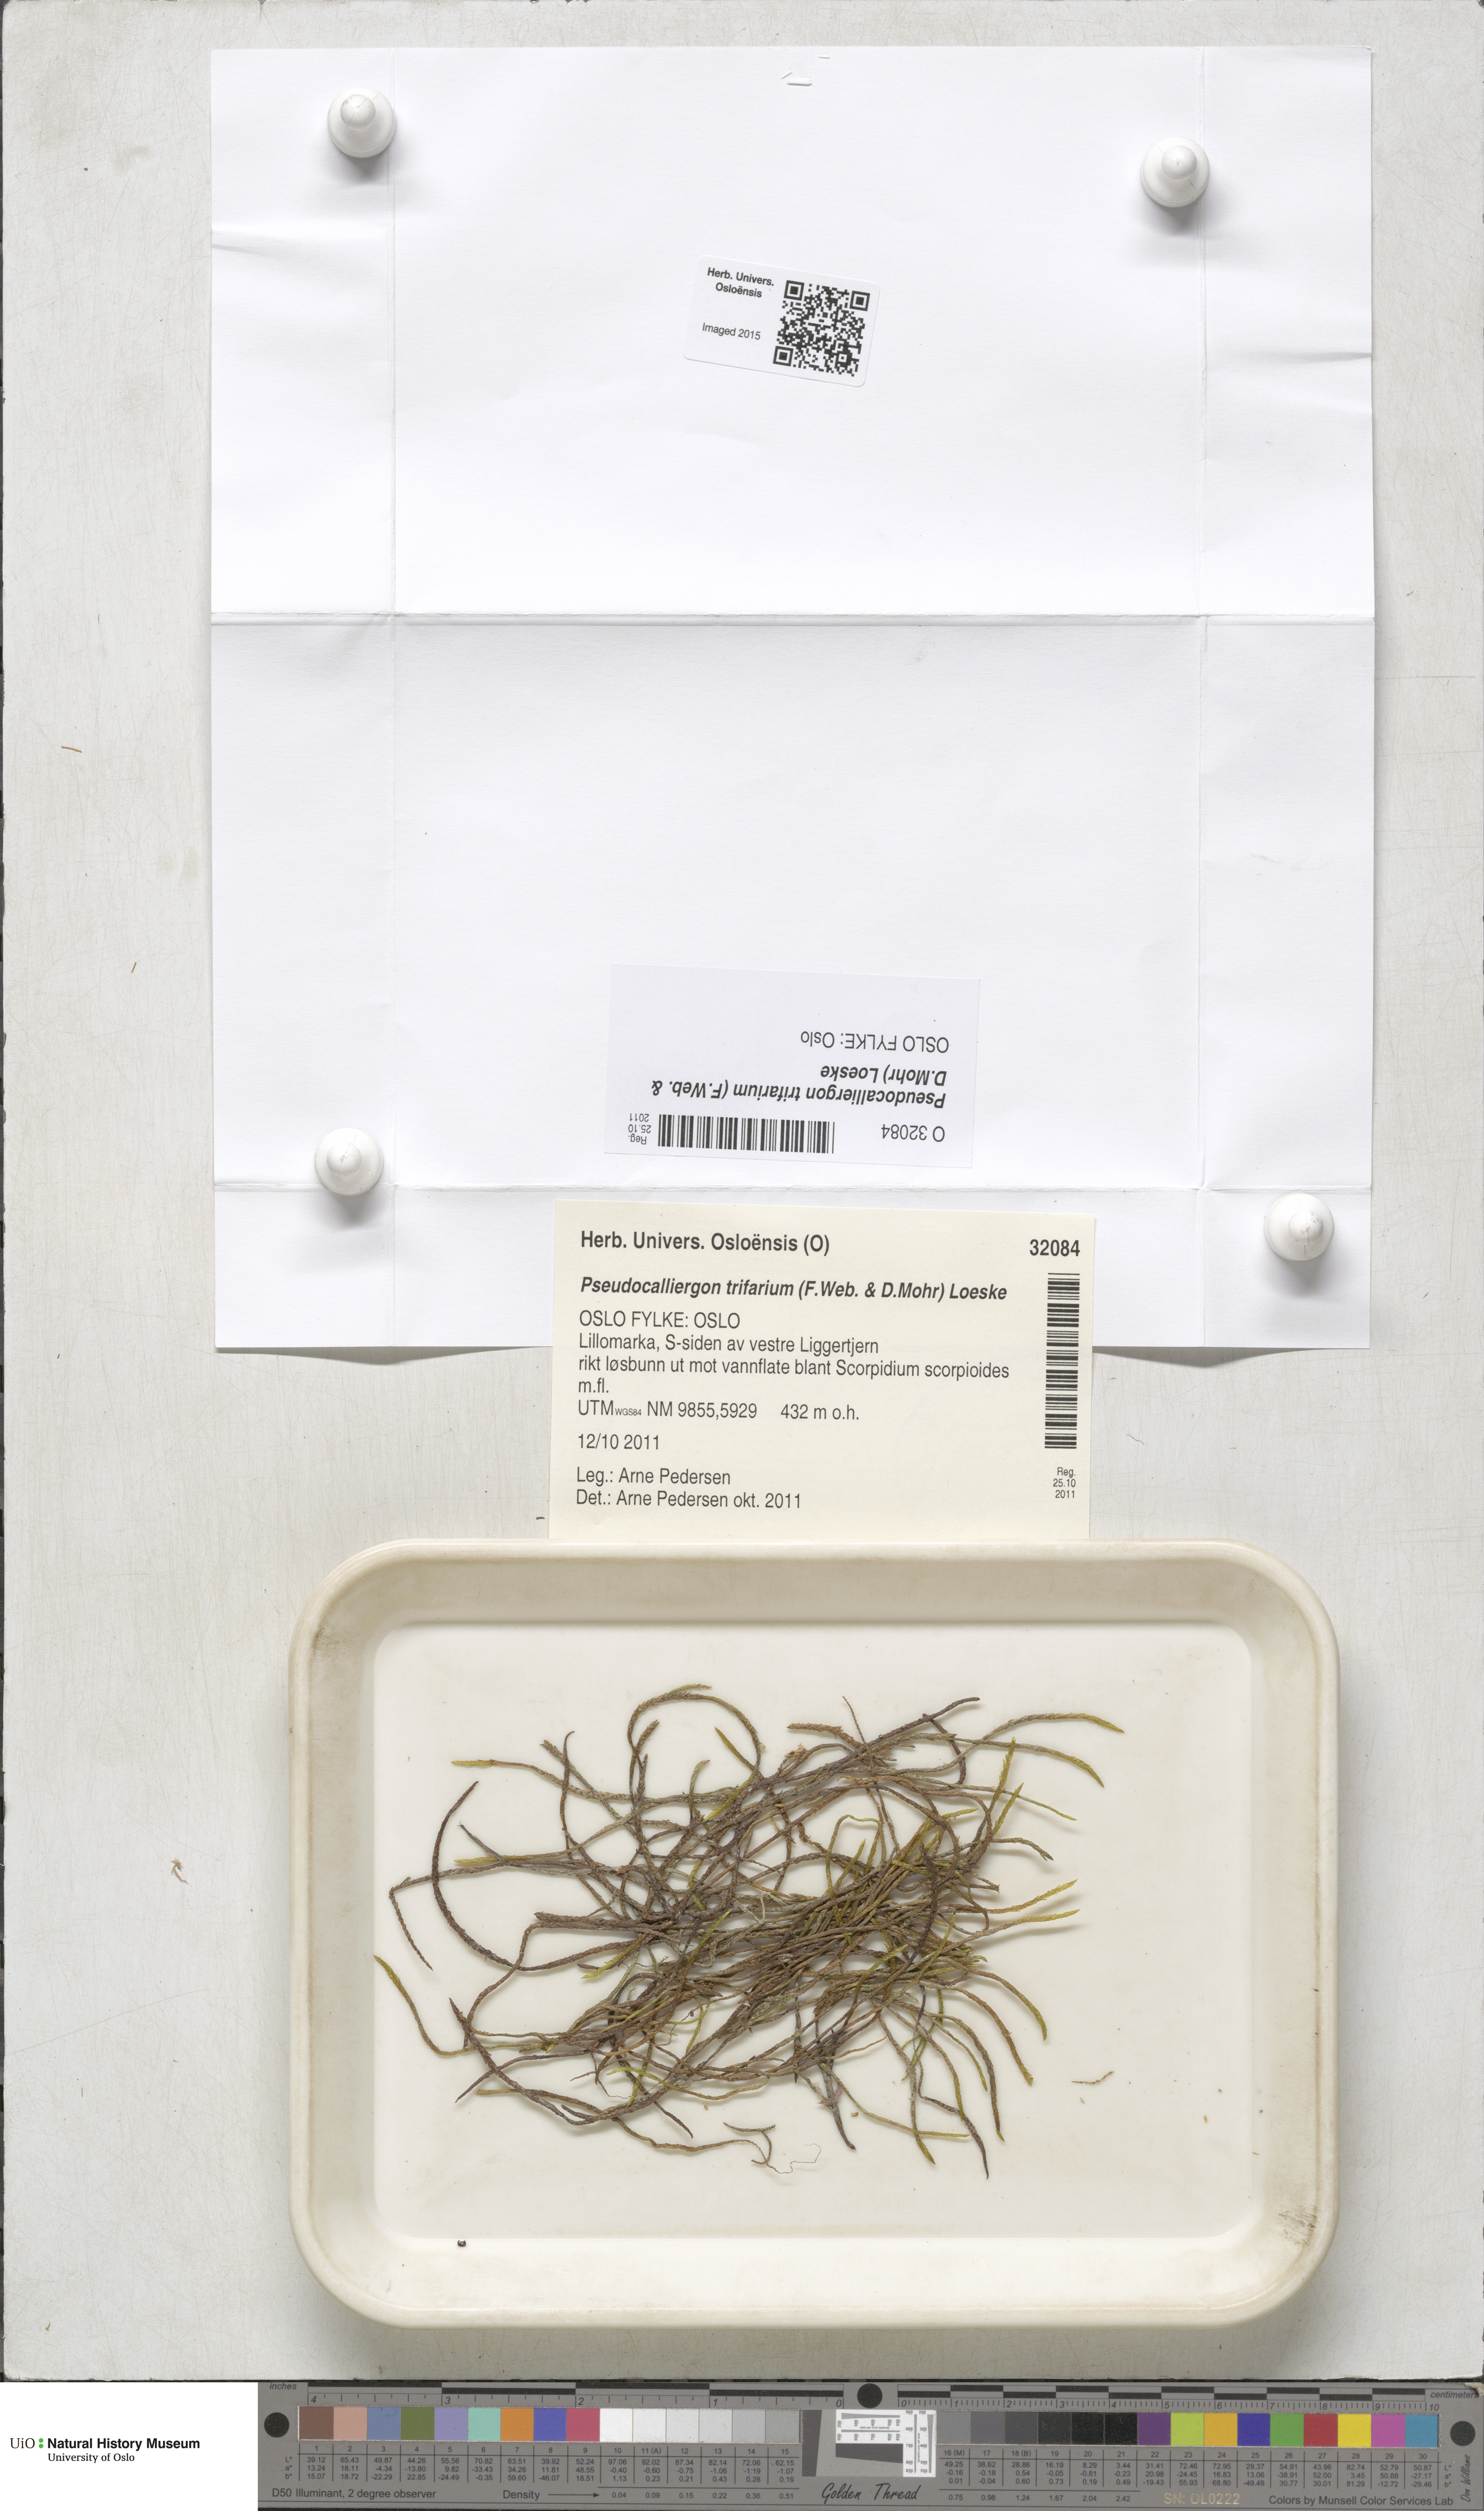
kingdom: Plantae
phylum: Bryophyta
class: Bryopsida
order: Hypnales
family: Amblystegiaceae
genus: Drepanocladus
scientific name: Drepanocladus trifarius
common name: Calliergon moss
